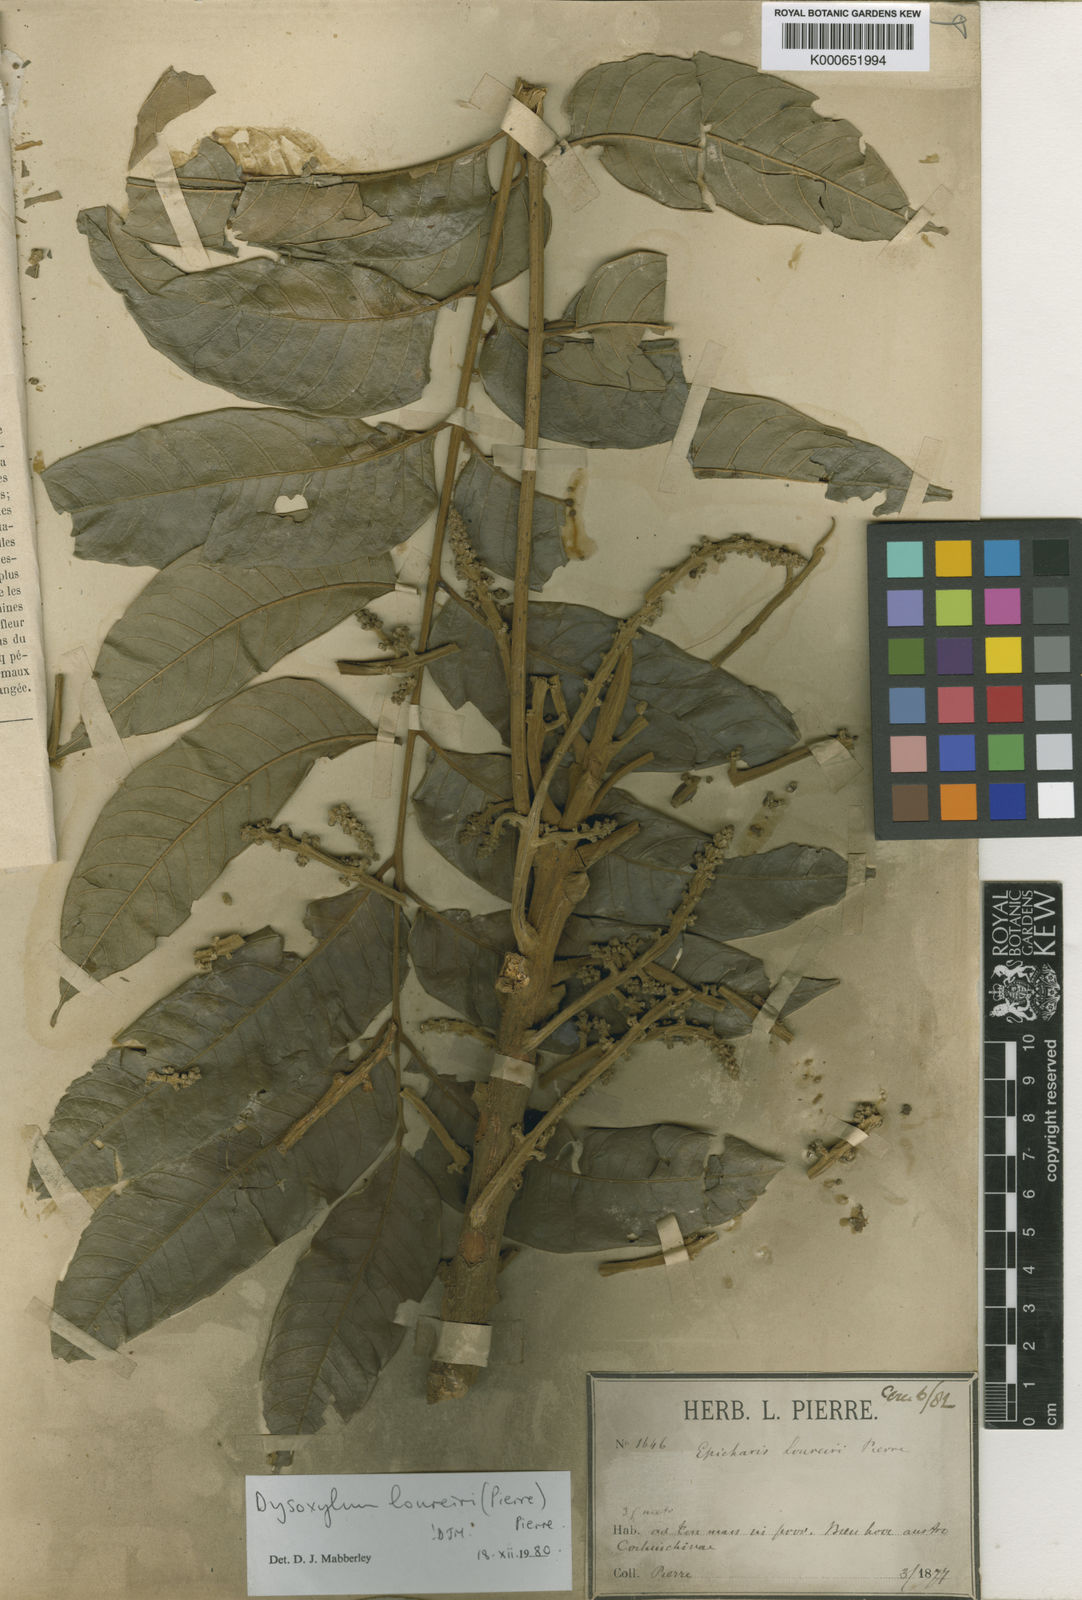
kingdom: Plantae
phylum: Tracheophyta
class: Magnoliopsida
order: Sapindales
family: Meliaceae
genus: Dysoxylum
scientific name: Dysoxylum
